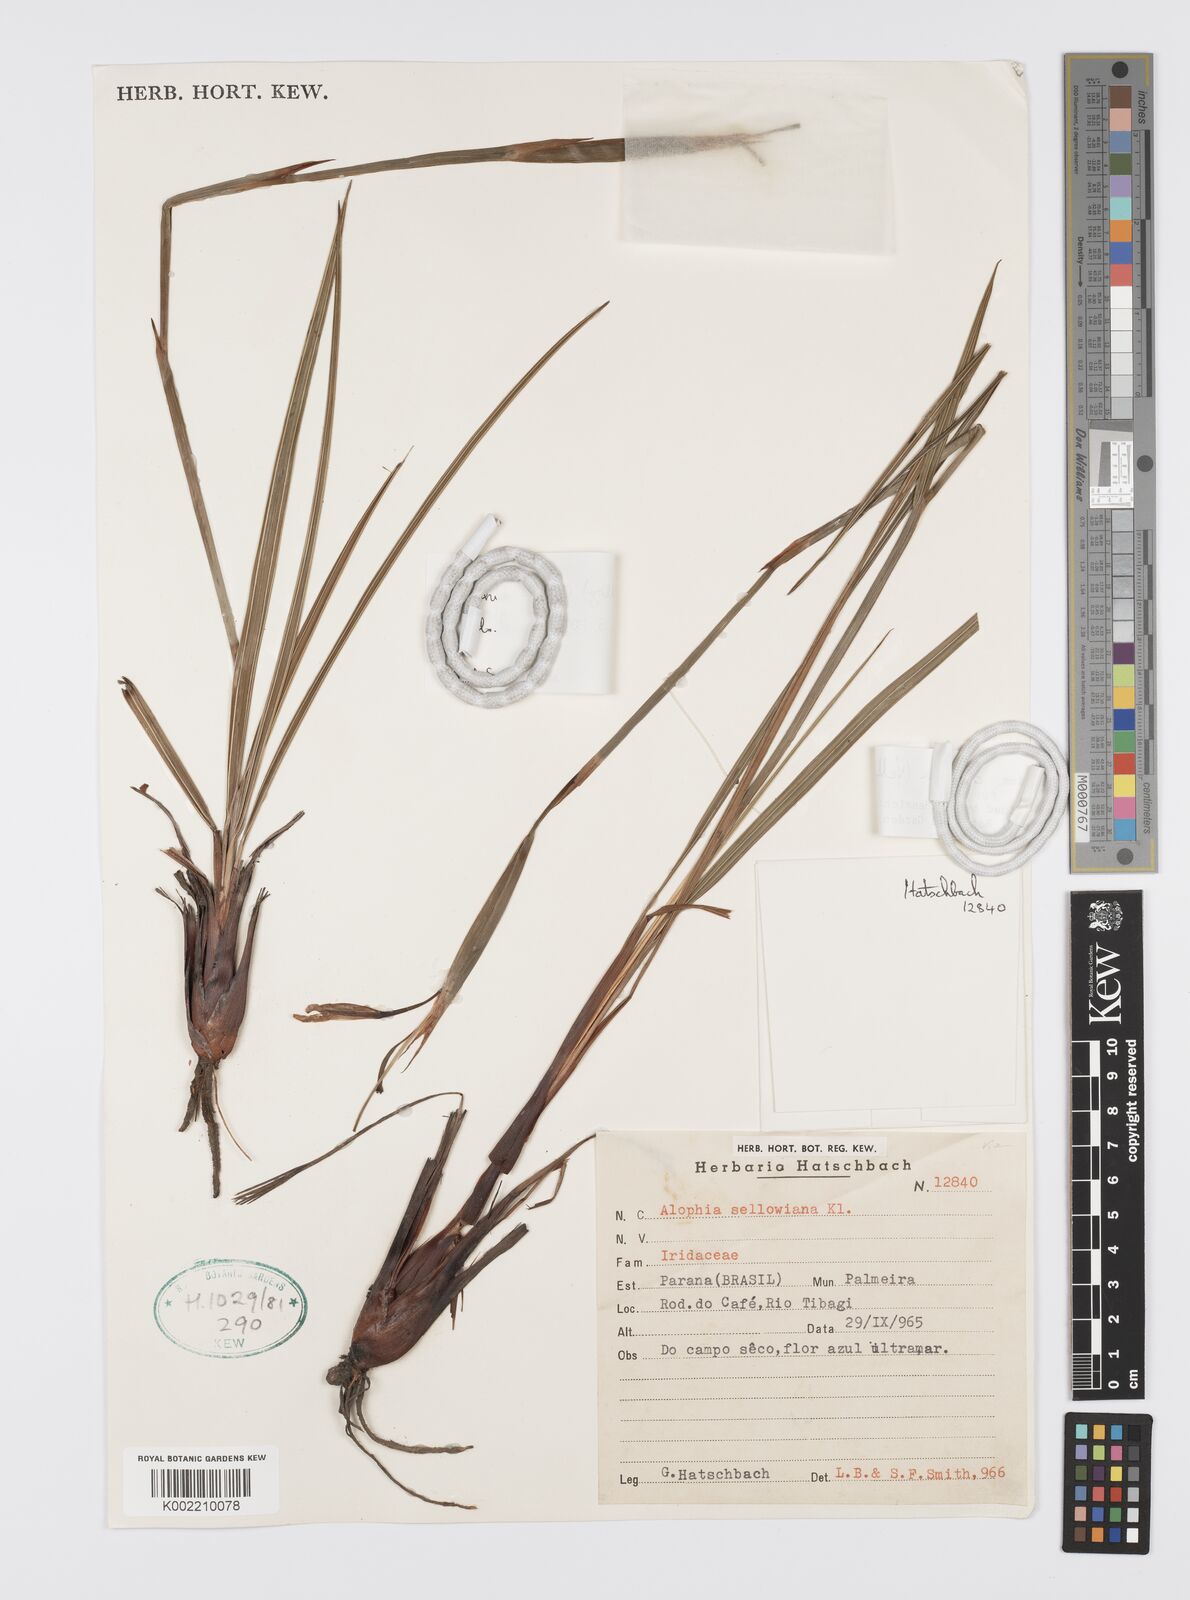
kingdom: Plantae
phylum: Tracheophyta
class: Liliopsida
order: Asparagales
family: Iridaceae
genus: Gelasine
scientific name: Gelasine coerulea
